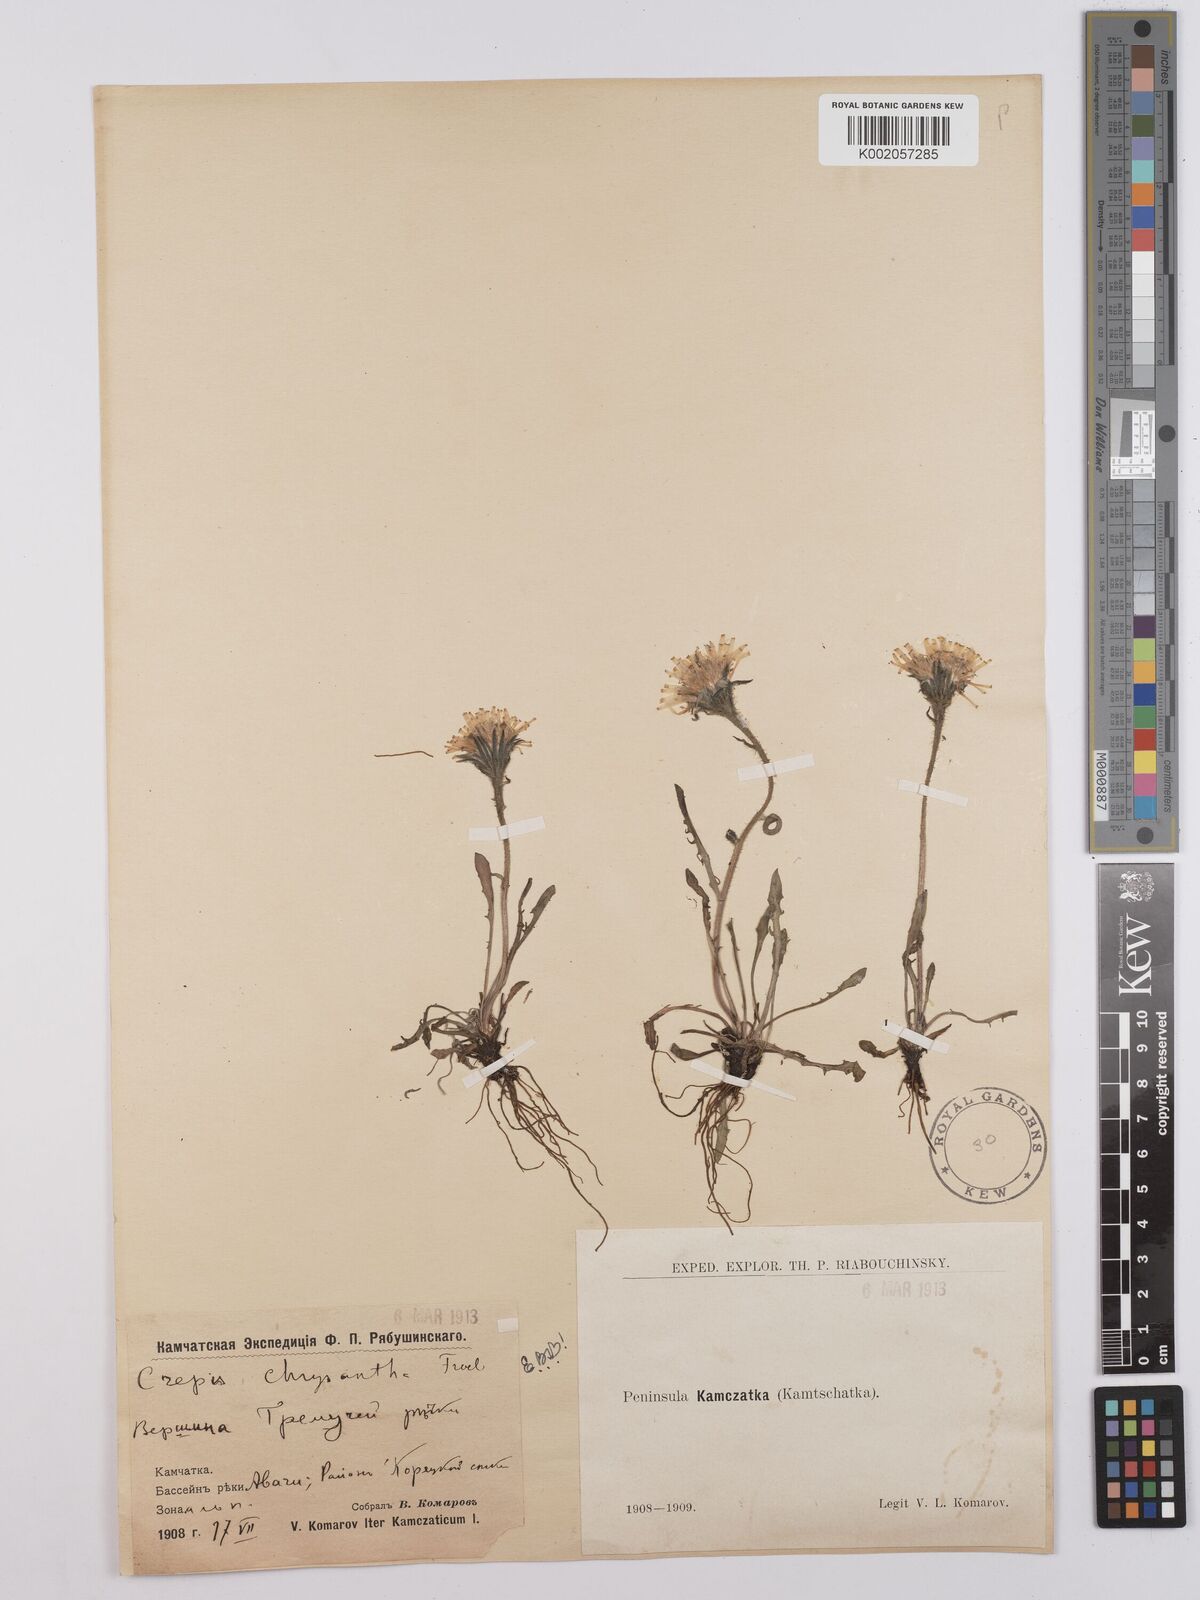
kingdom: Plantae
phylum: Tracheophyta
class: Magnoliopsida
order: Asterales
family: Asteraceae
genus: Crepis
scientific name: Crepis chrysantha
